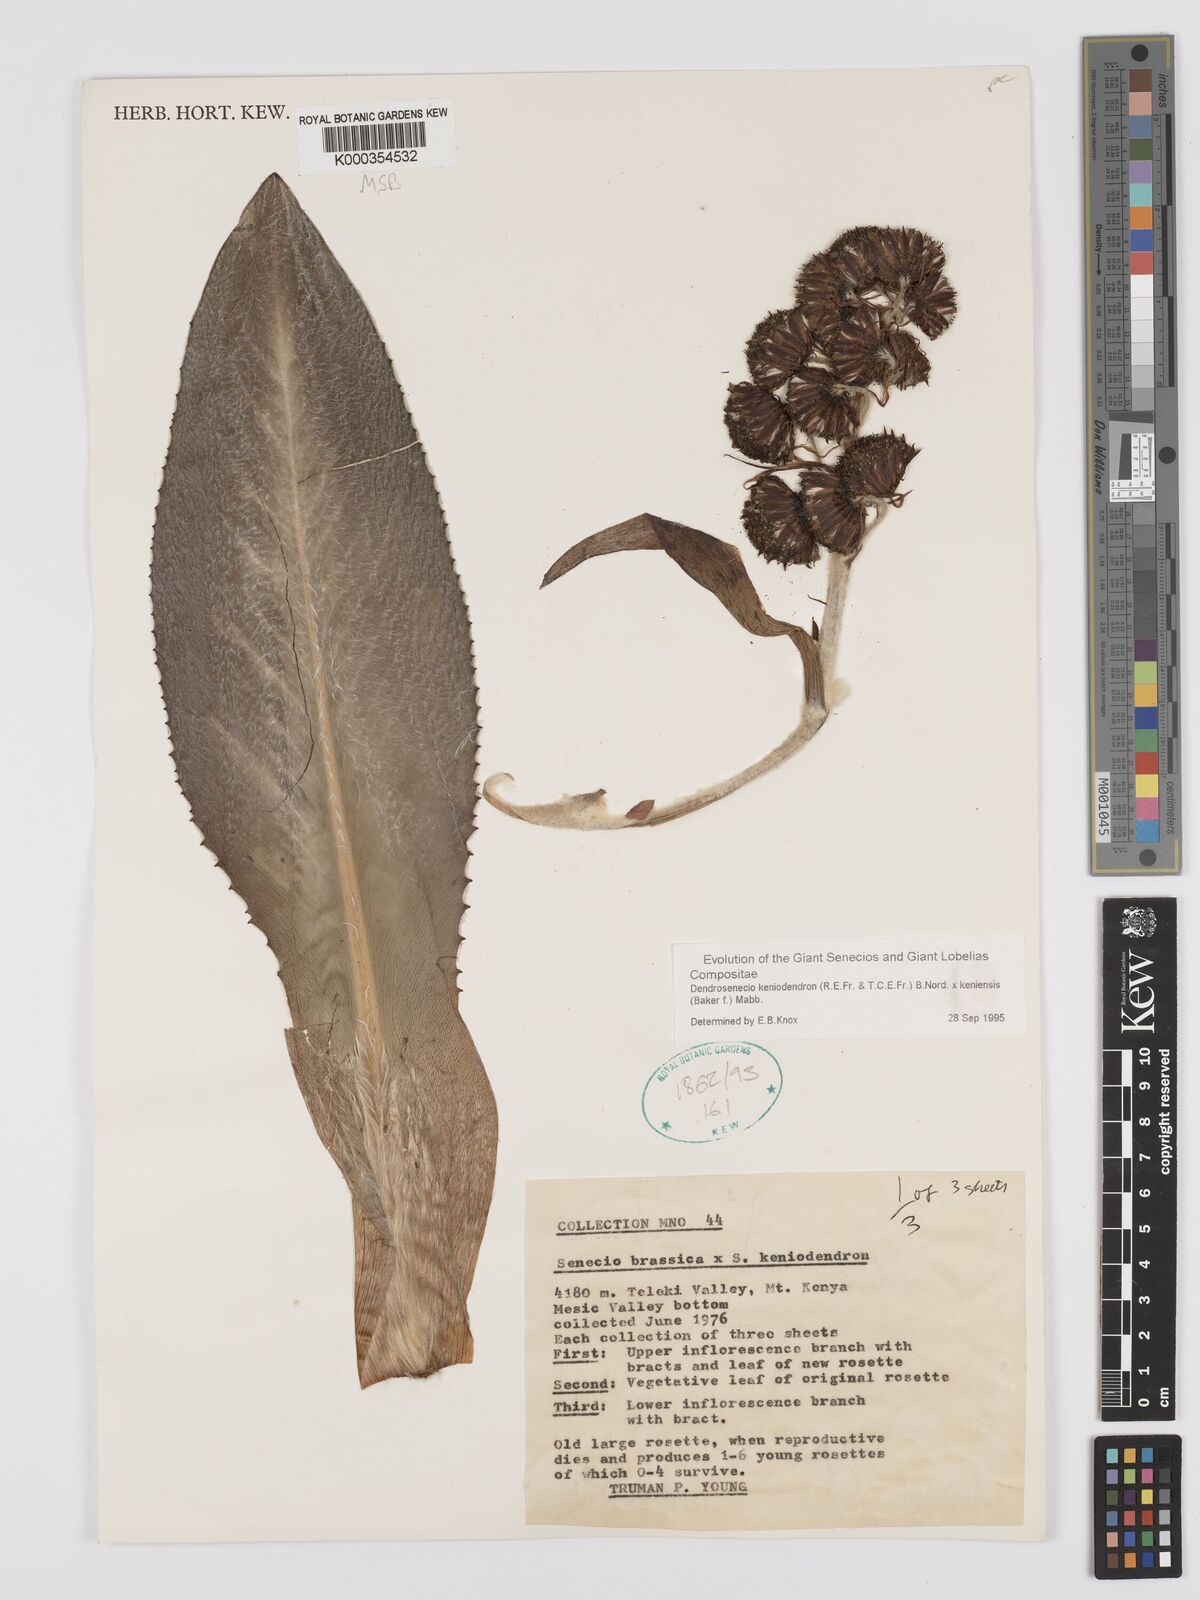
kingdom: Plantae
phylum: Tracheophyta
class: Magnoliopsida
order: Asterales
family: Asteraceae
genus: Dendrosenecio
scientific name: Dendrosenecio keniodendron
